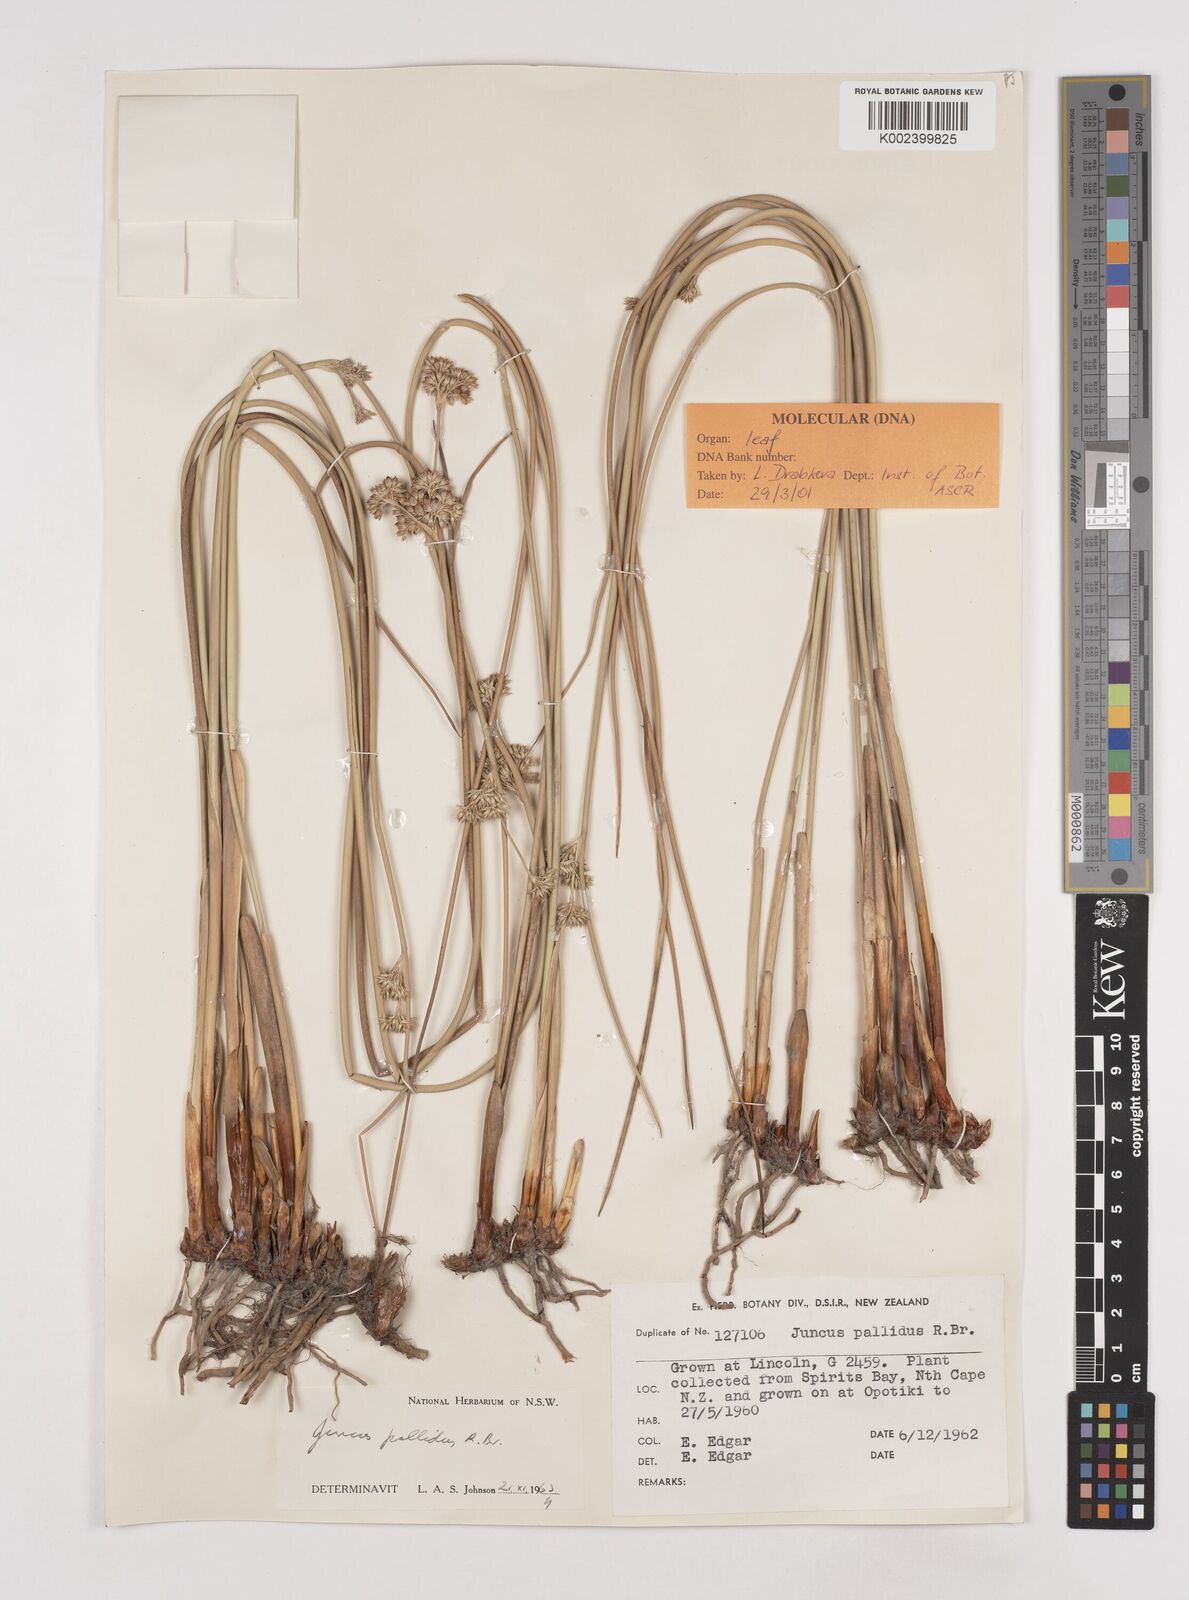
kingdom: Plantae
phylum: Tracheophyta
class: Liliopsida
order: Poales
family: Juncaceae
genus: Juncus
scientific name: Juncus pallidus
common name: Great soft-rush
